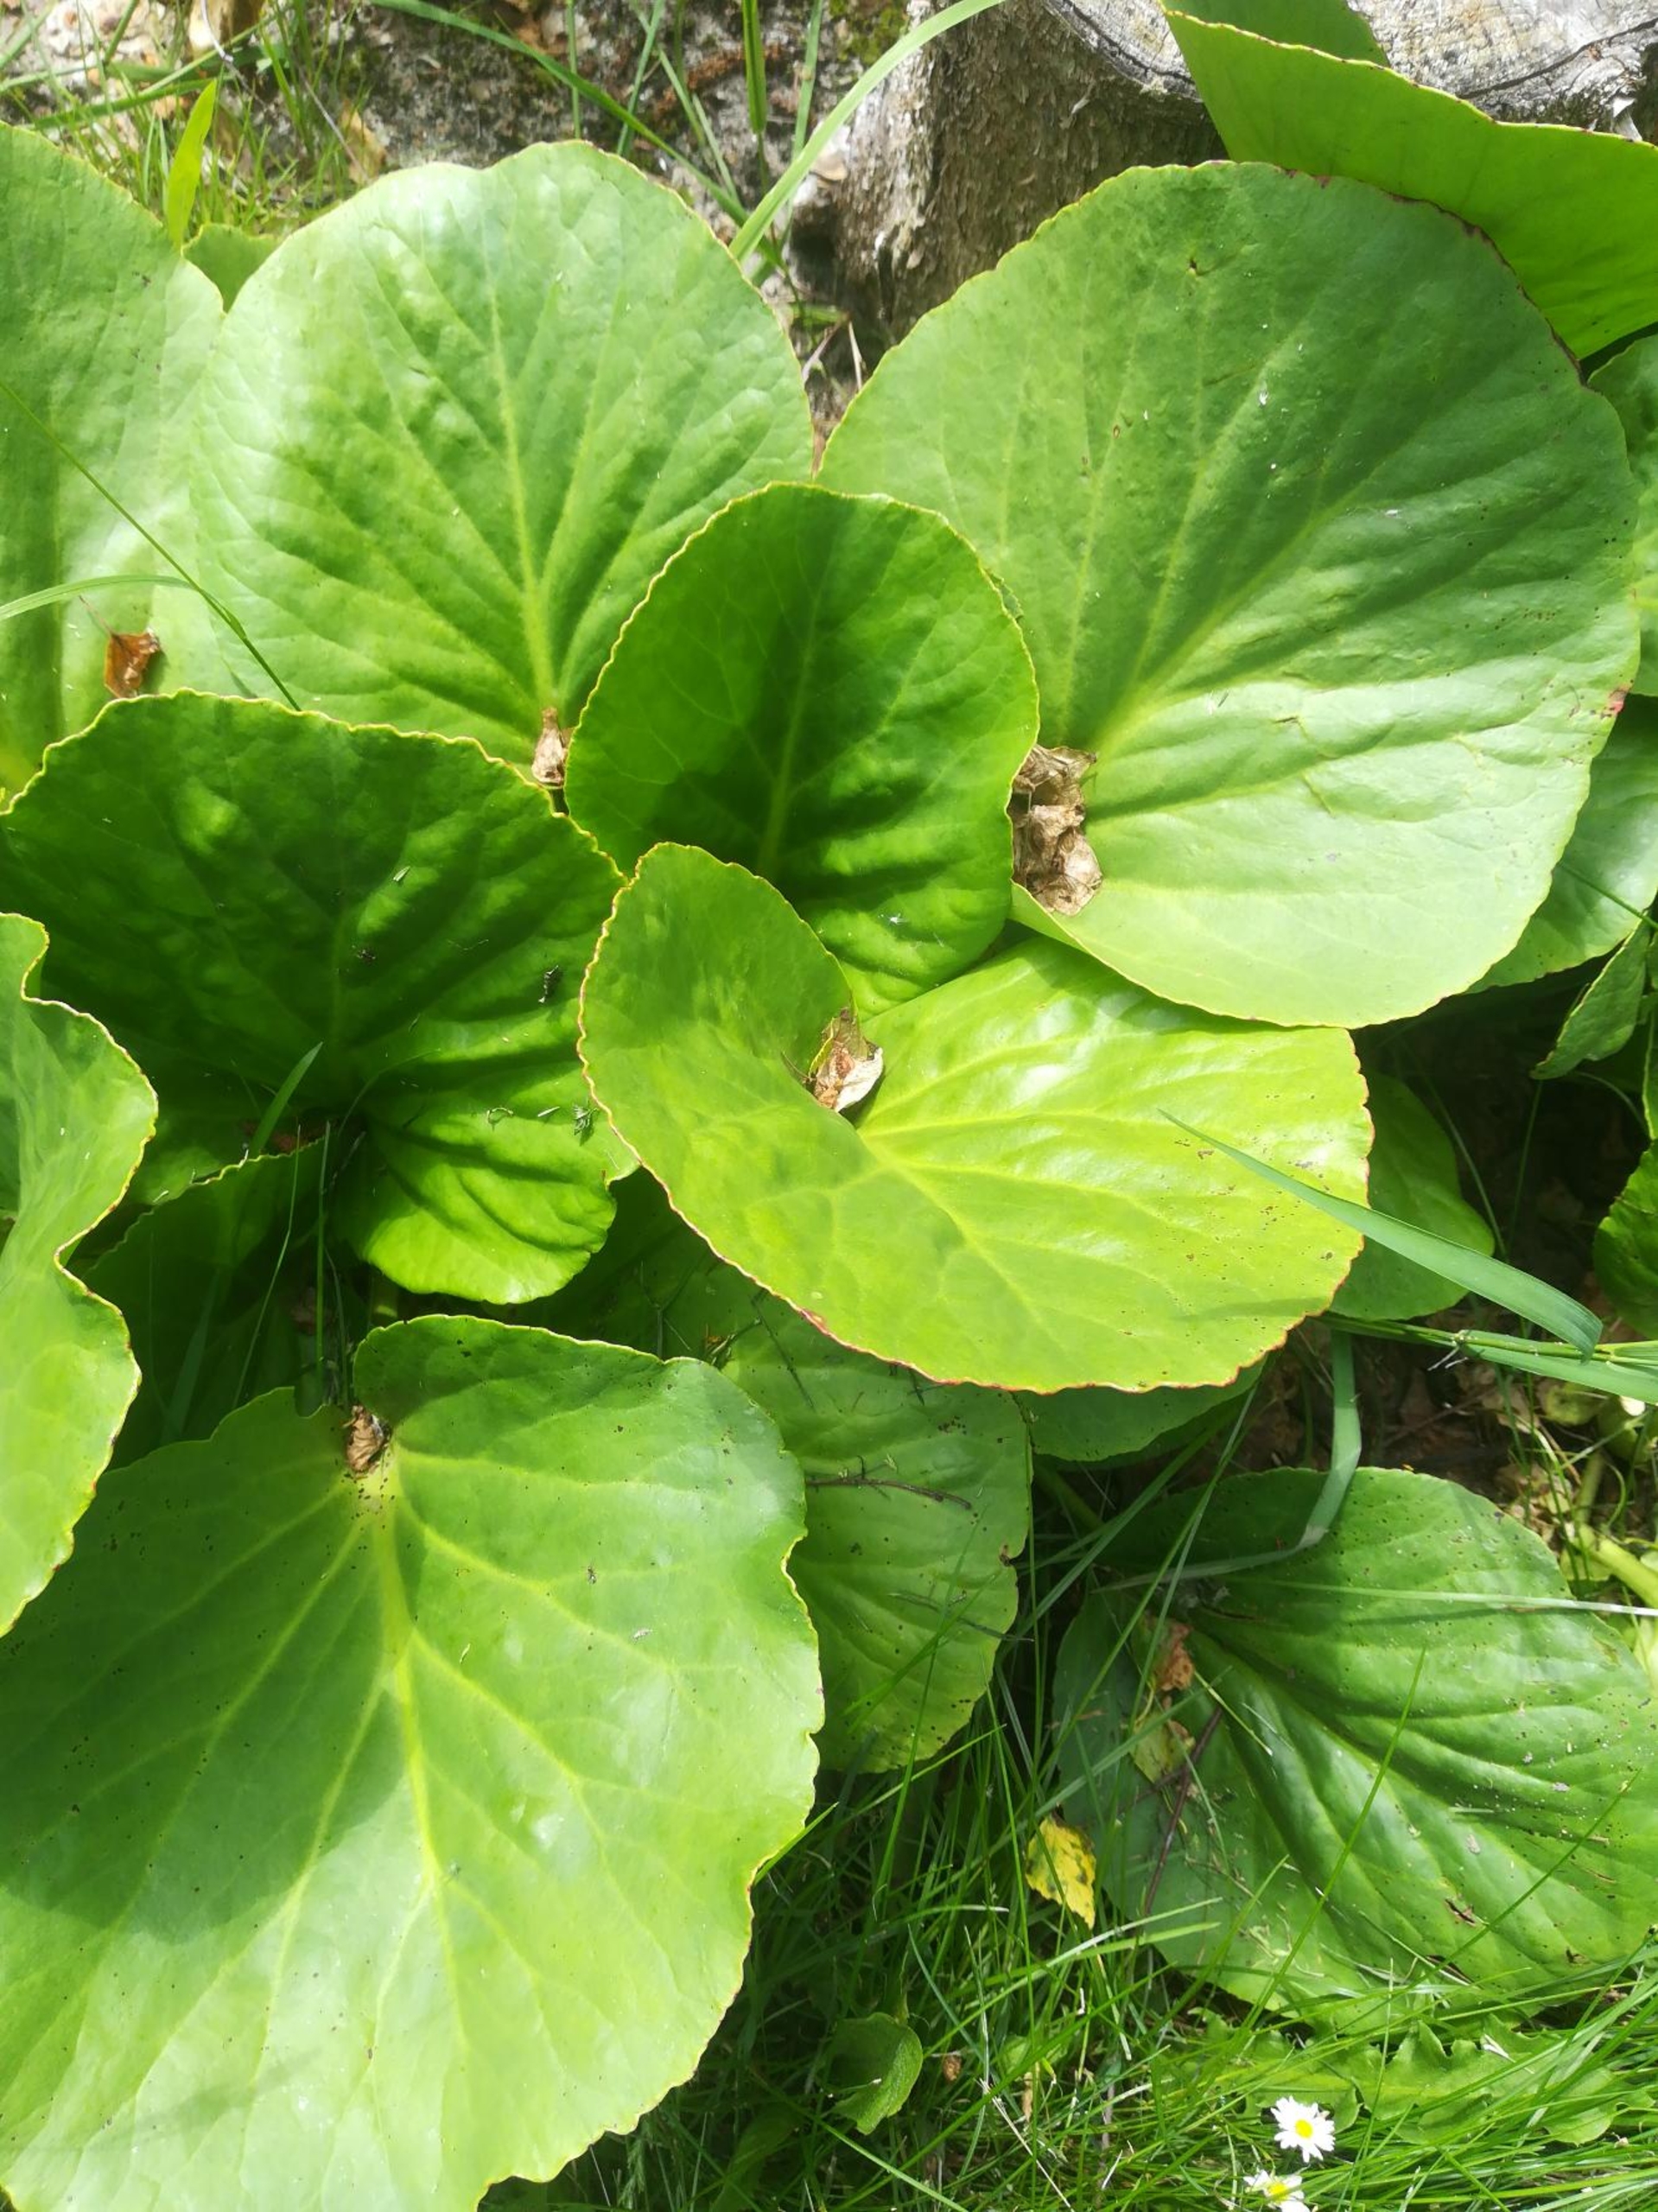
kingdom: Plantae
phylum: Tracheophyta
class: Magnoliopsida
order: Saxifragales
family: Saxifragaceae
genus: Bergenia
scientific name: Bergenia crassifolia
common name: Almindelig kæmpestenbræk
